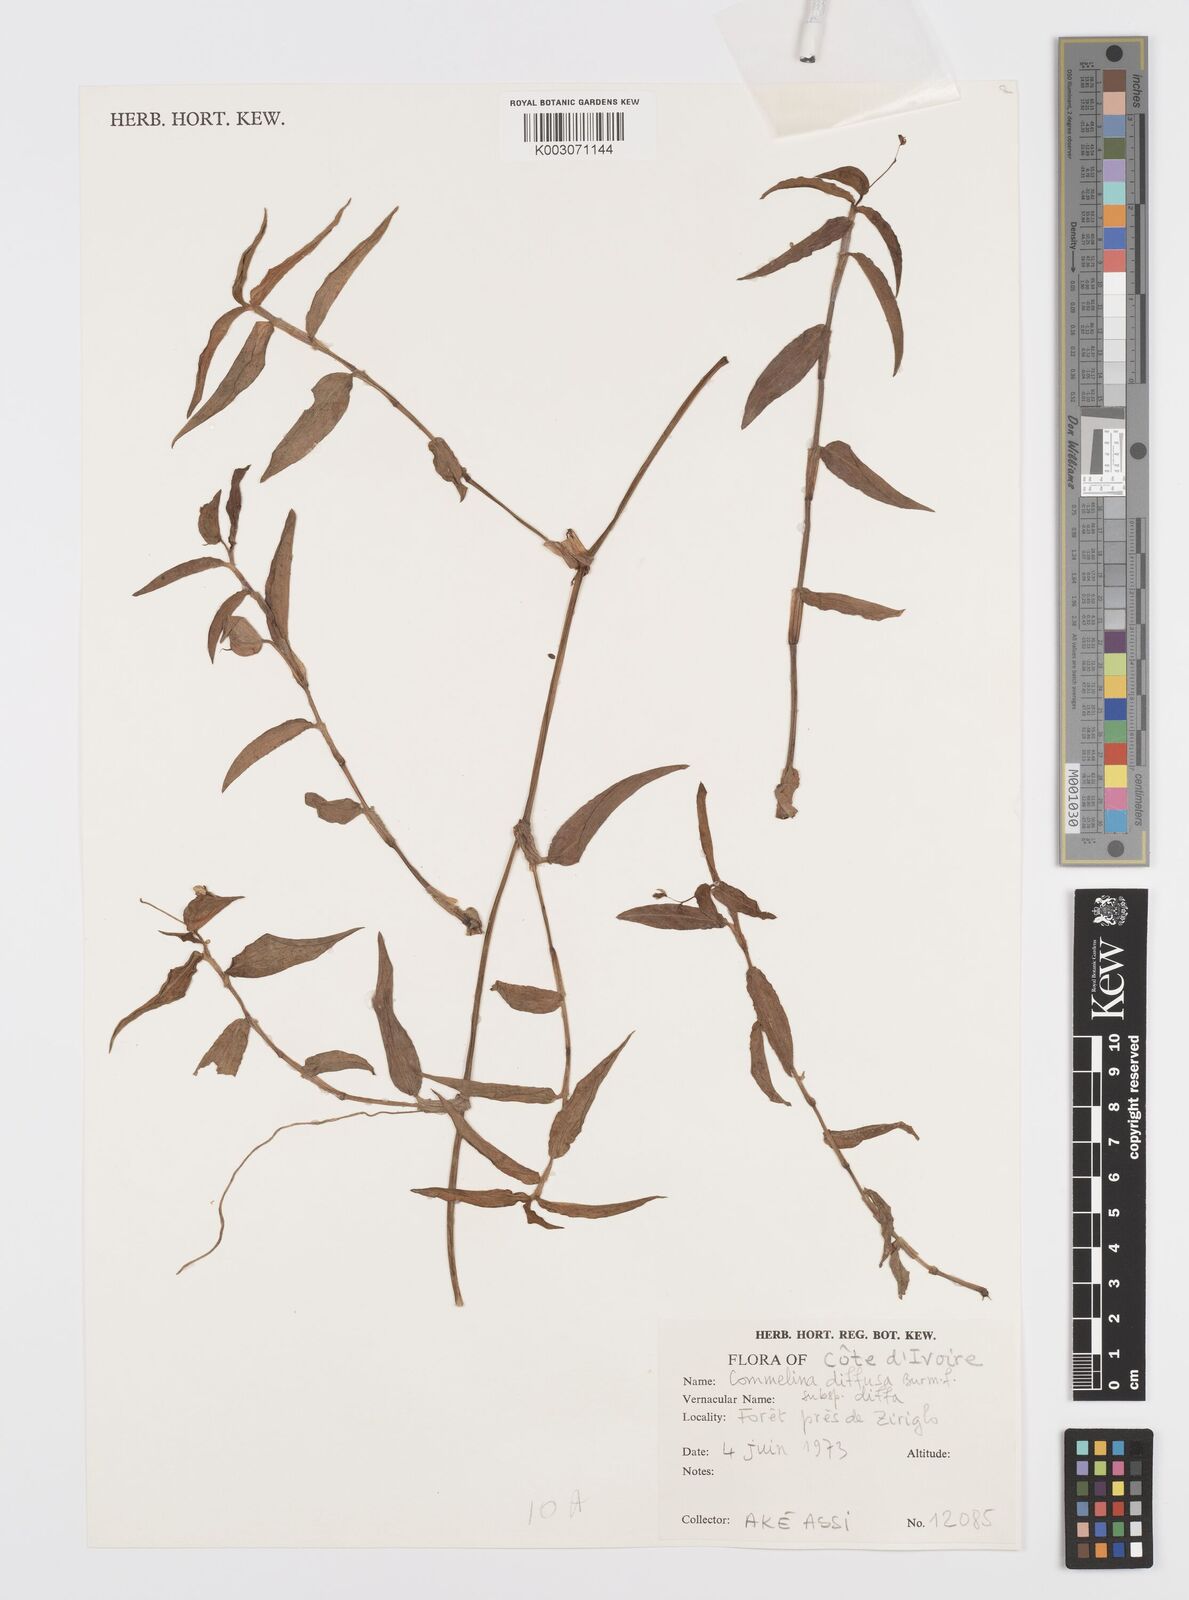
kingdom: Plantae
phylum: Tracheophyta
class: Liliopsida
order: Commelinales
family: Commelinaceae
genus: Commelina
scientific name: Commelina diffusa
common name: Climbing dayflower
